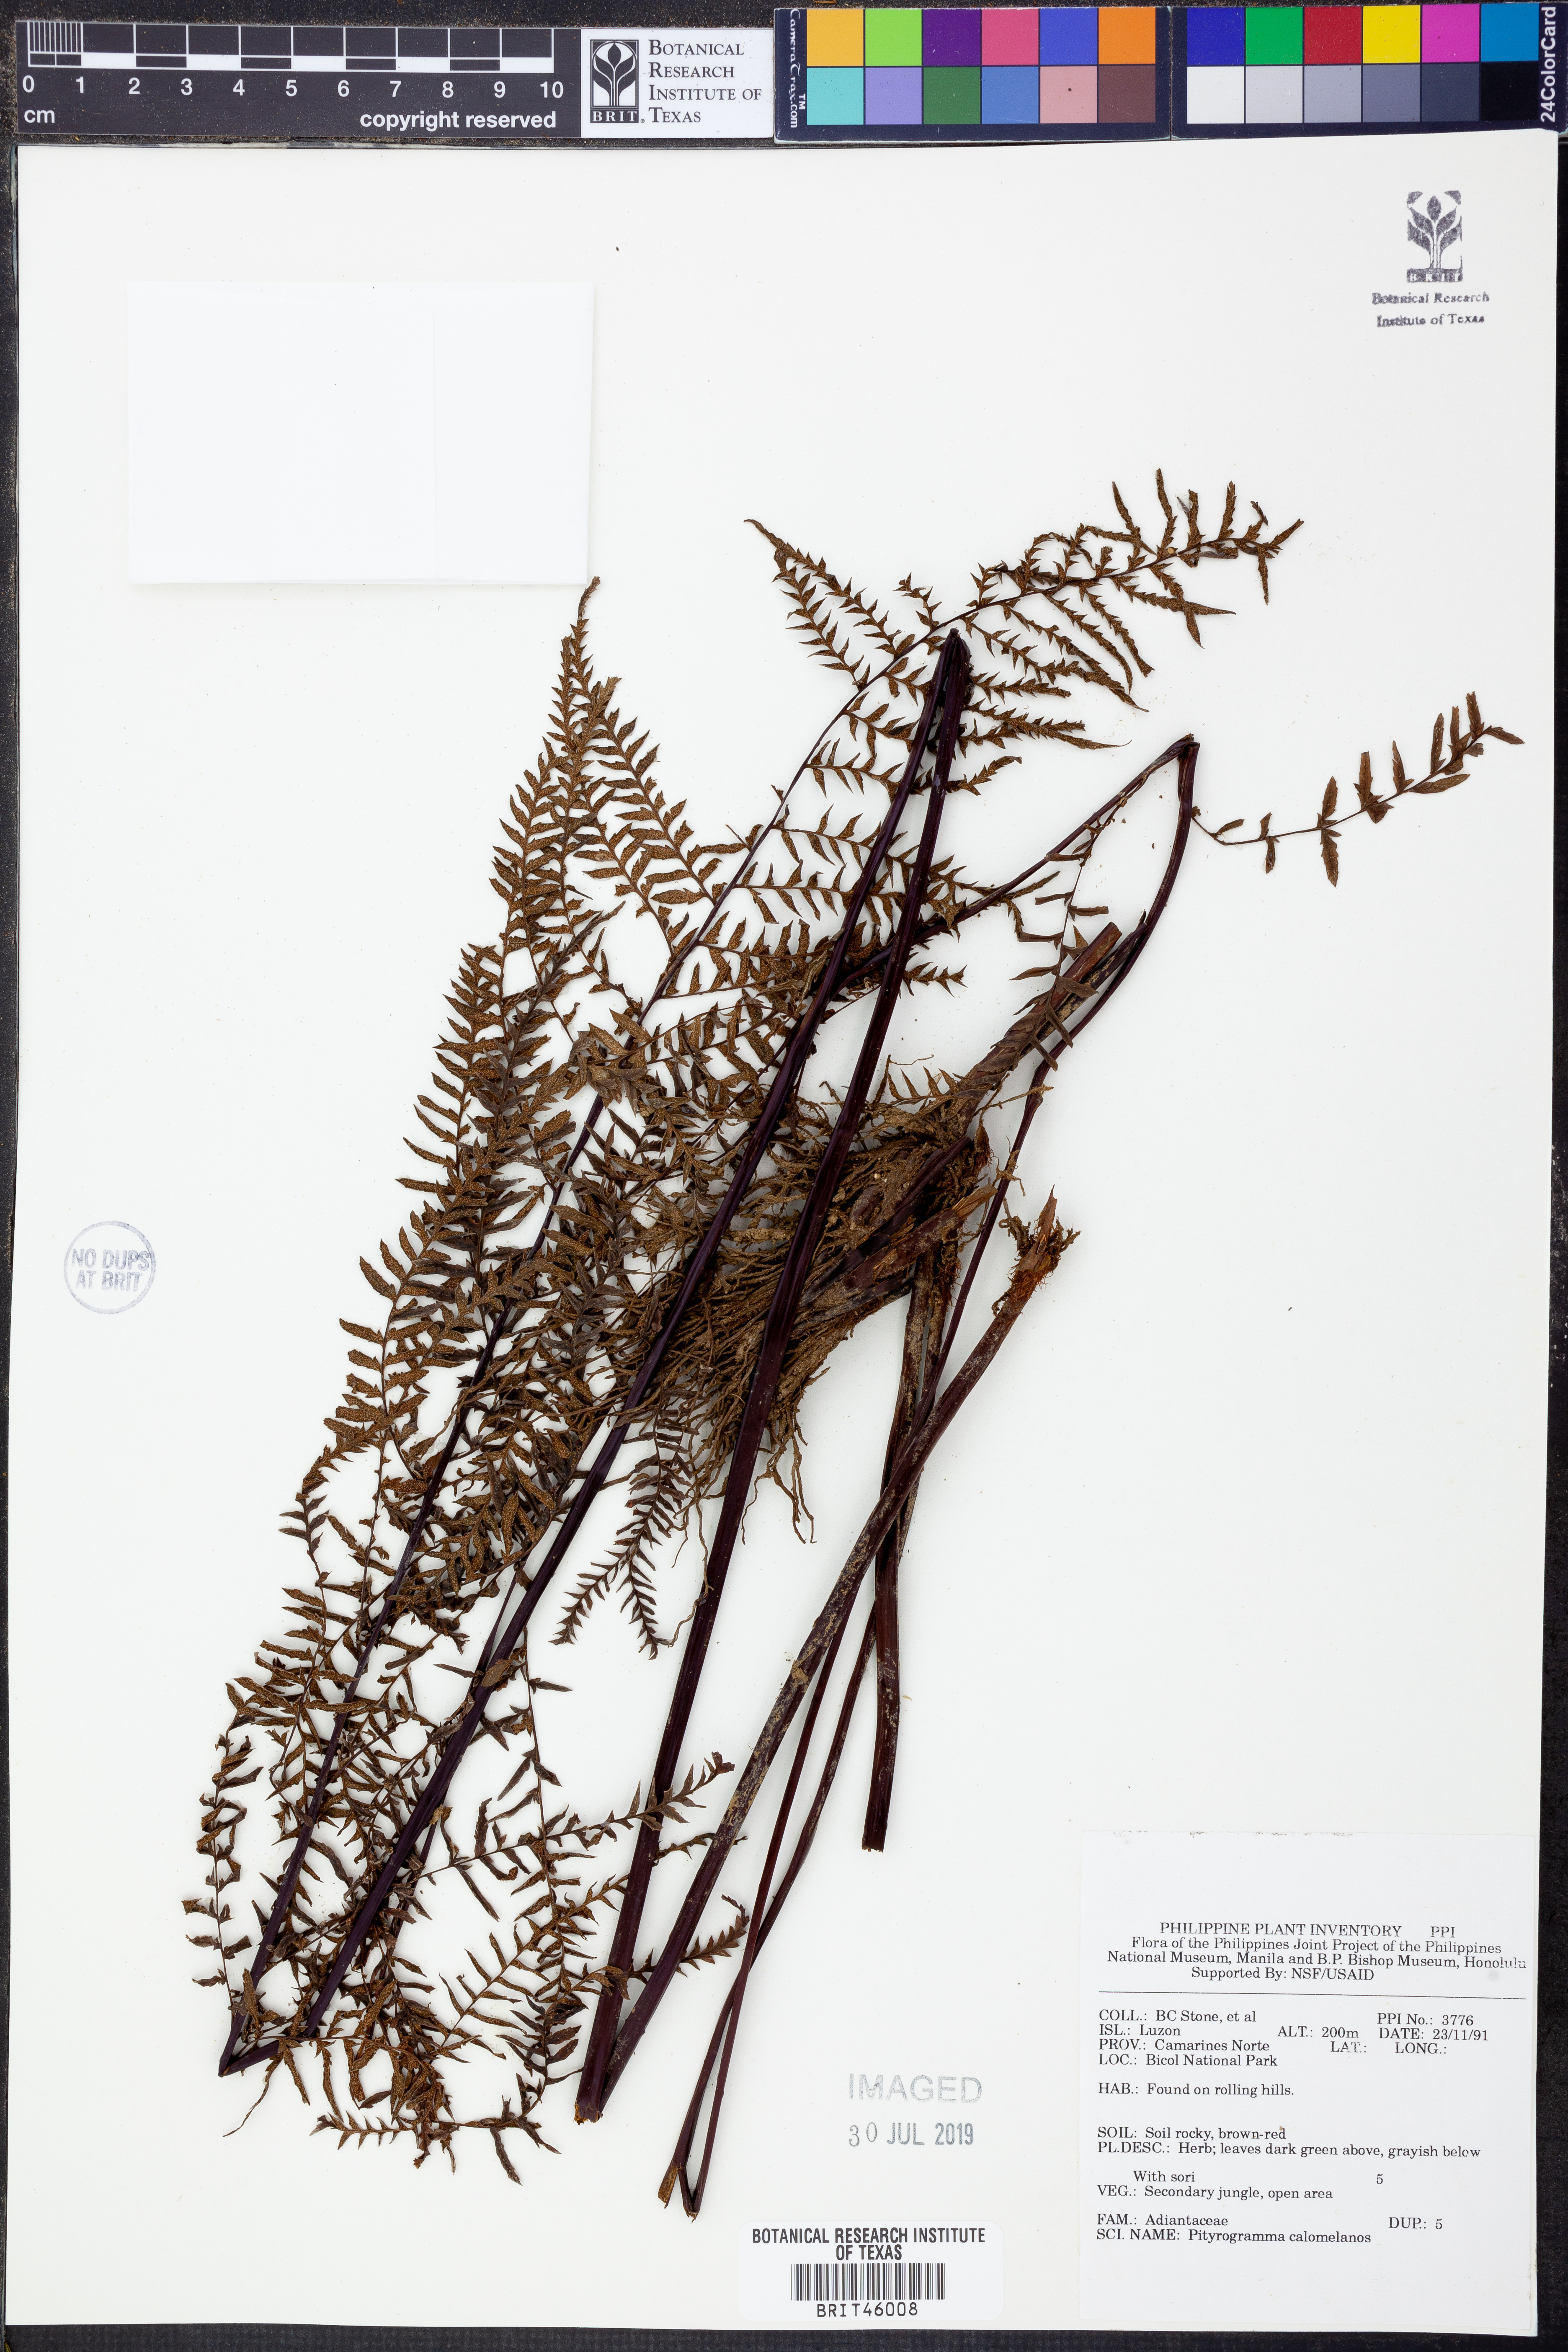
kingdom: Plantae
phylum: Tracheophyta
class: Polypodiopsida
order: Polypodiales
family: Pteridaceae
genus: Pityrogramma
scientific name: Pityrogramma calomelanos
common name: Dixie silverback fern
